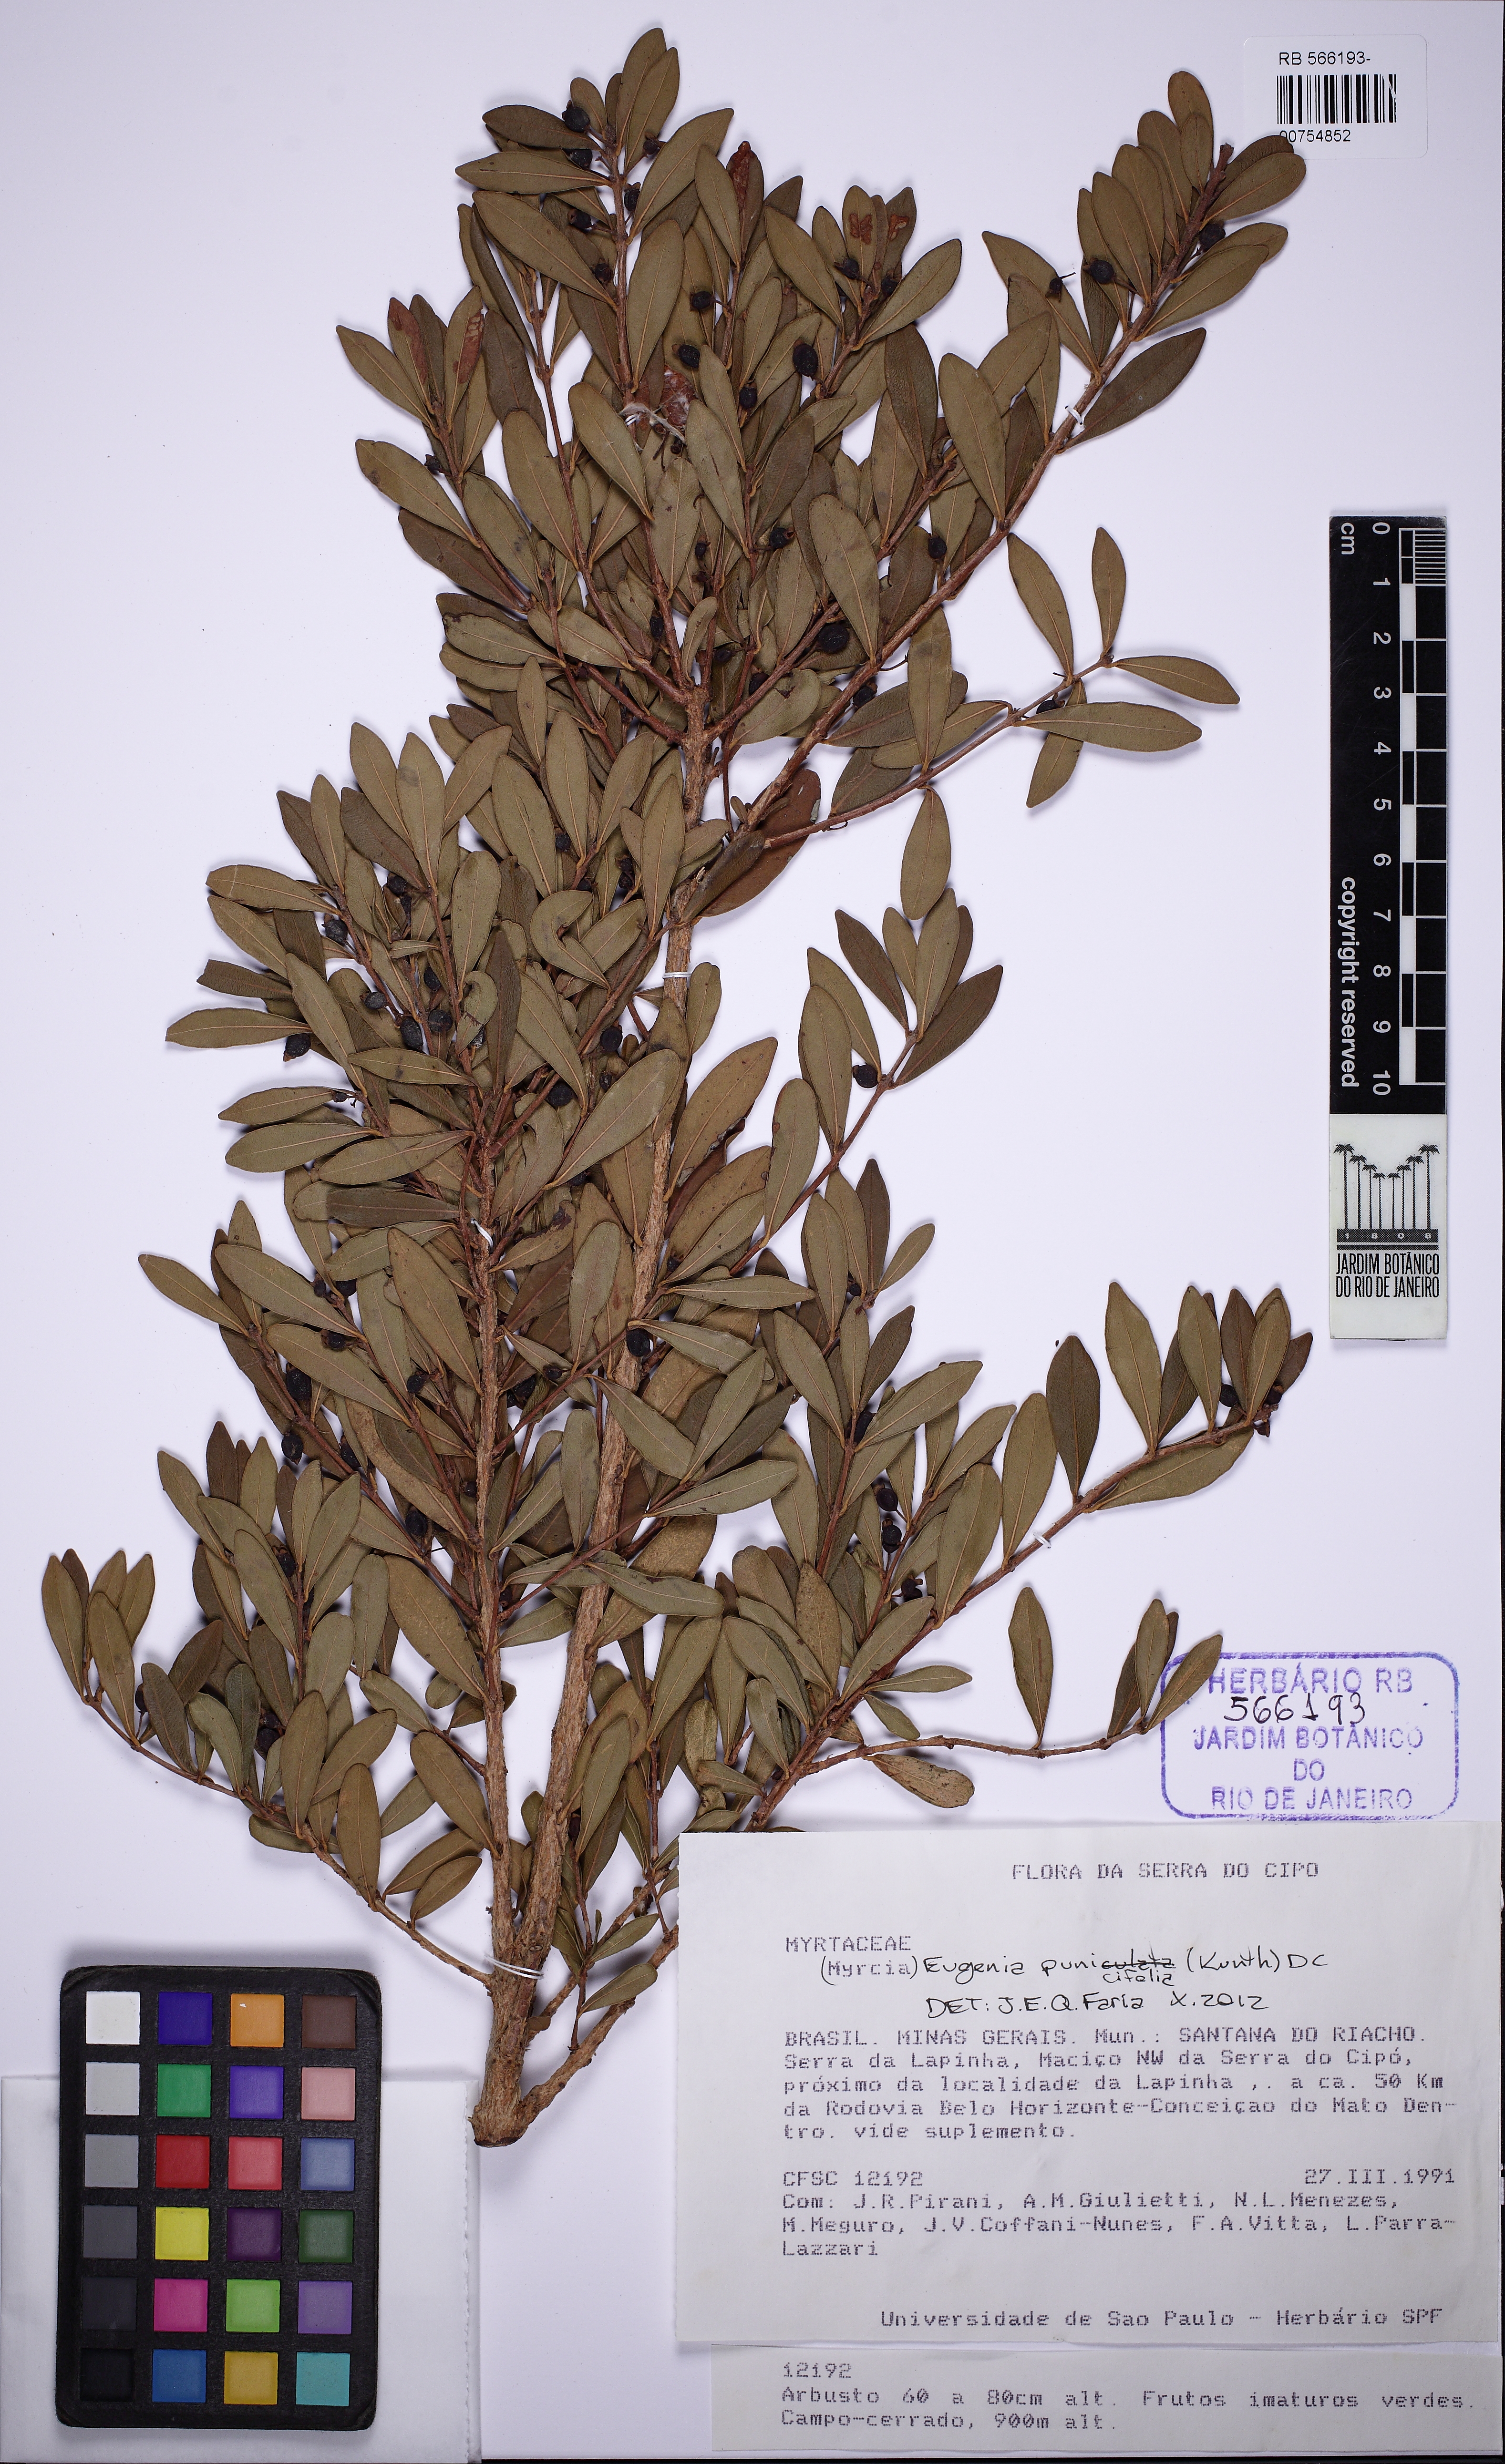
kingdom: Plantae
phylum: Tracheophyta
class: Magnoliopsida
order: Myrtales
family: Myrtaceae
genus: Eugenia
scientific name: Eugenia punicifolia
